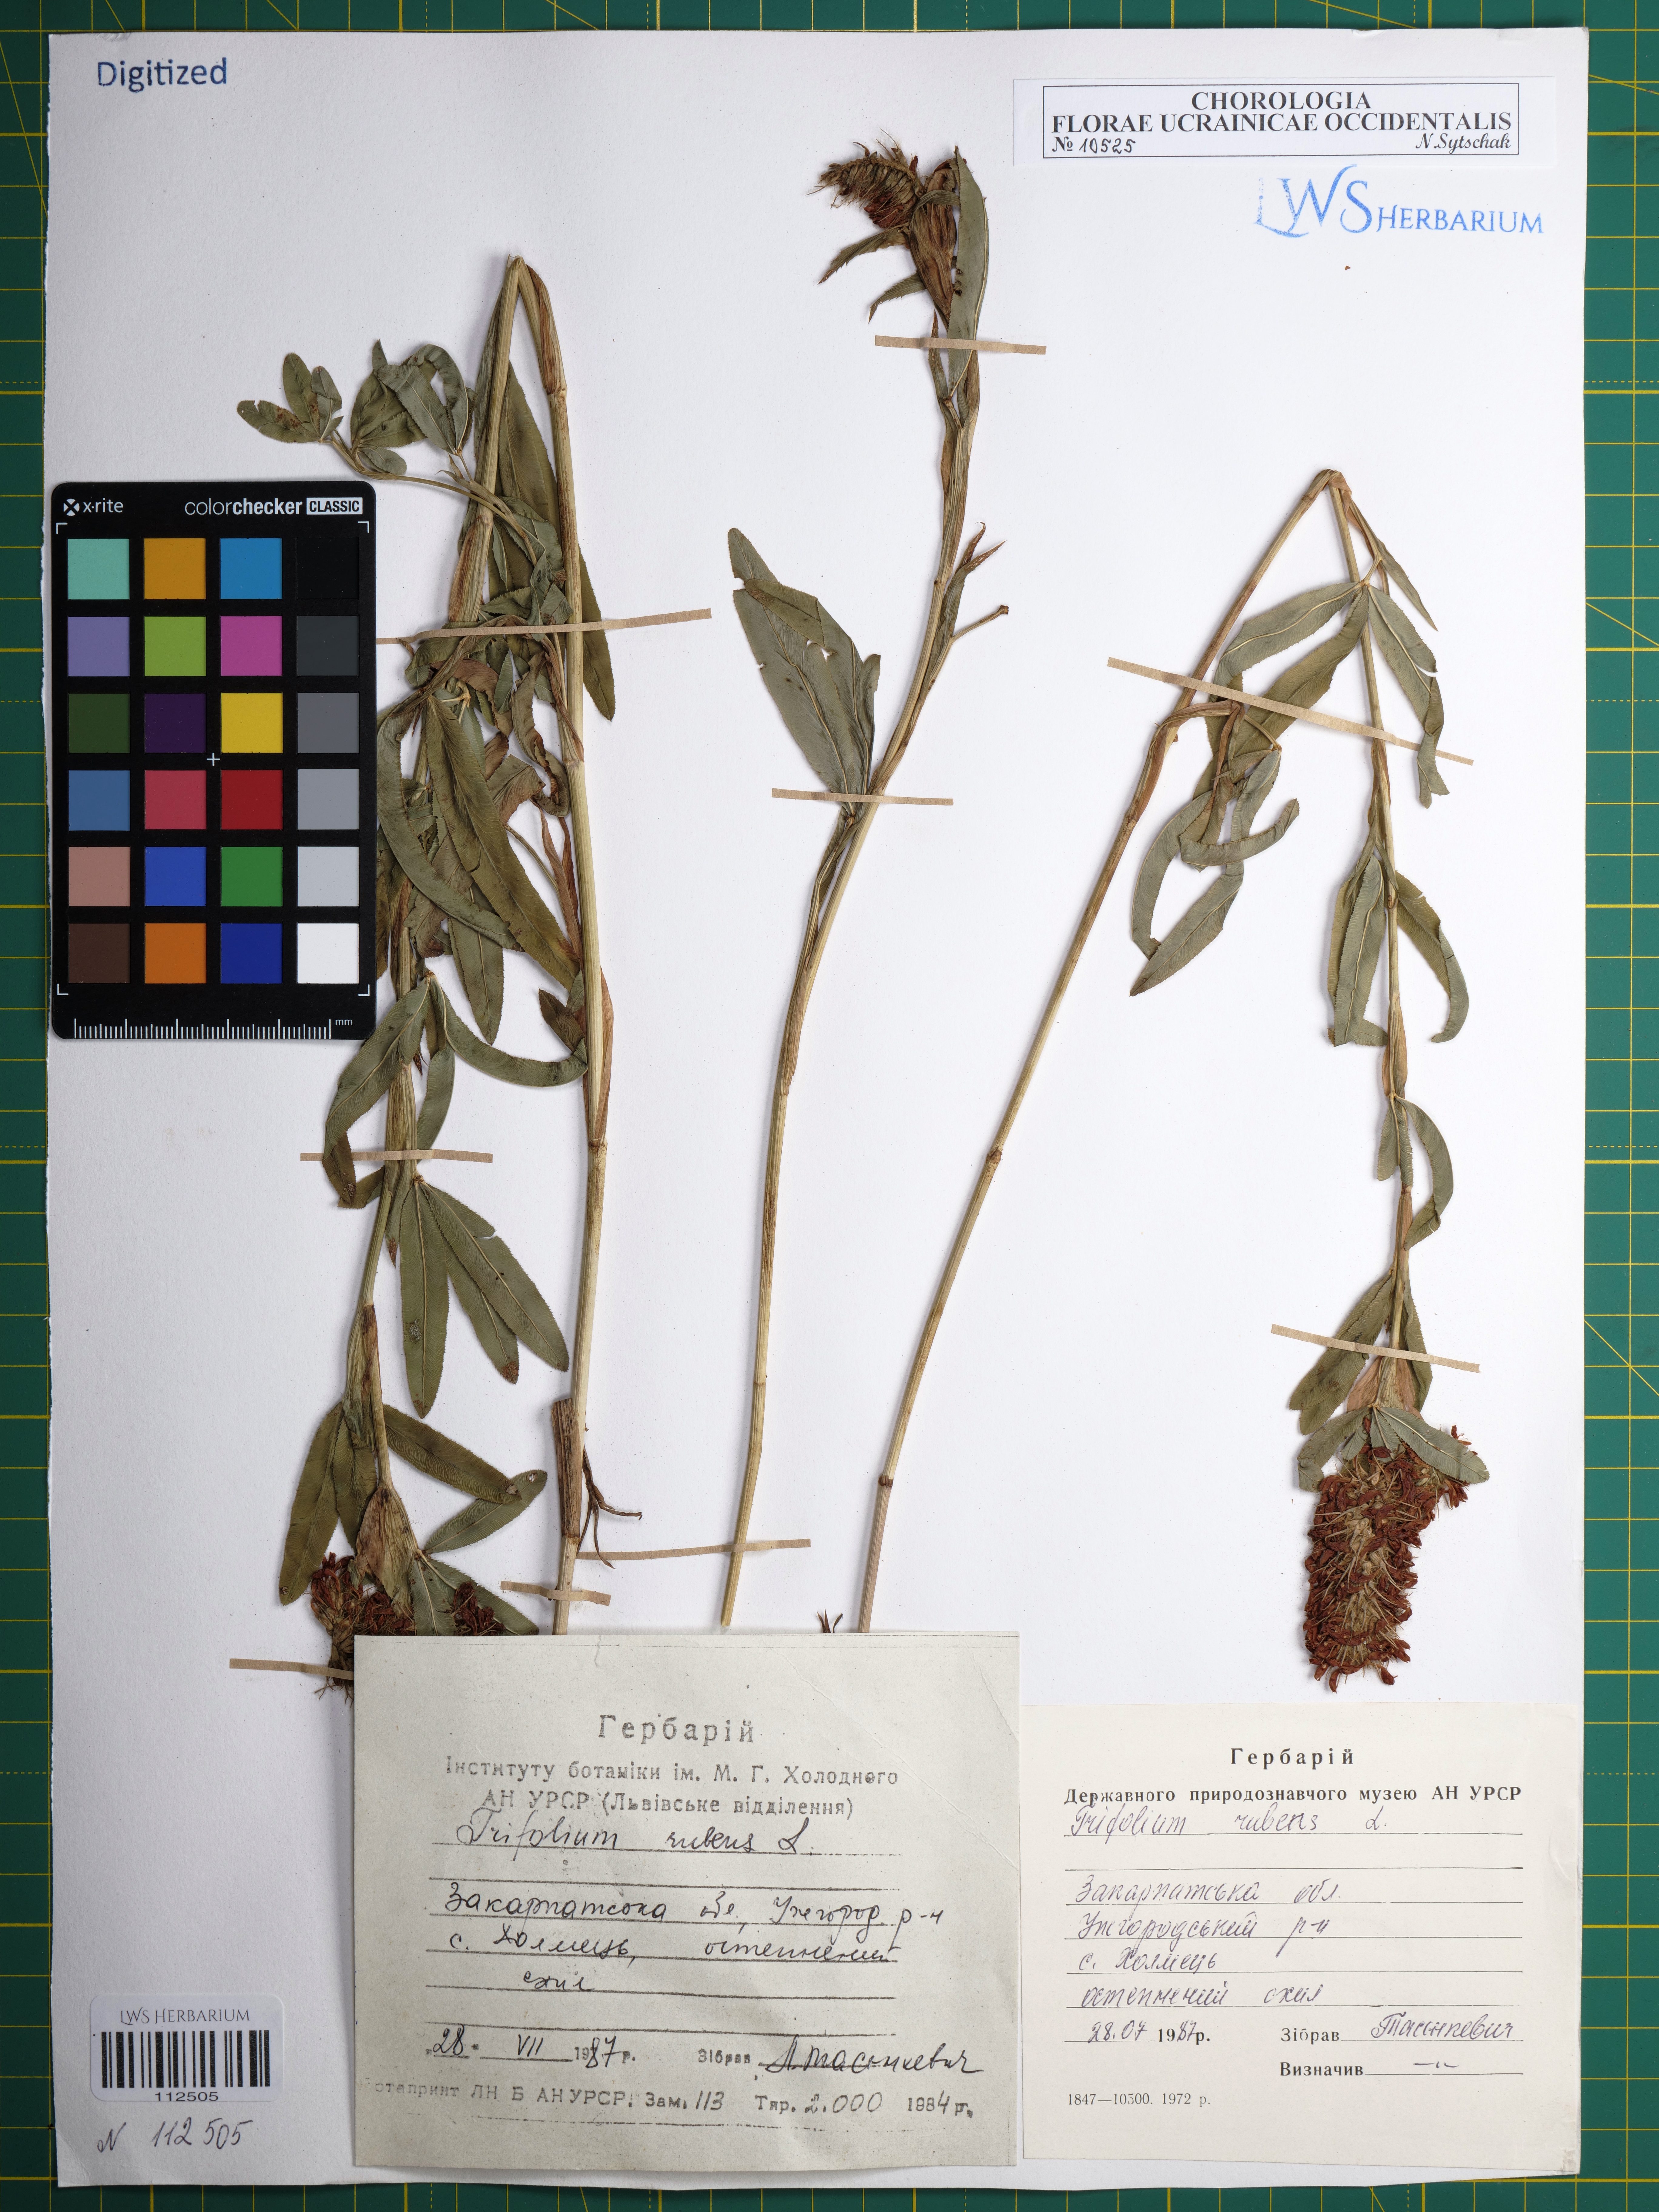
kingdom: Plantae
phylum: Tracheophyta
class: Magnoliopsida
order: Fabales
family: Fabaceae
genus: Trifolium
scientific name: Trifolium rubens
